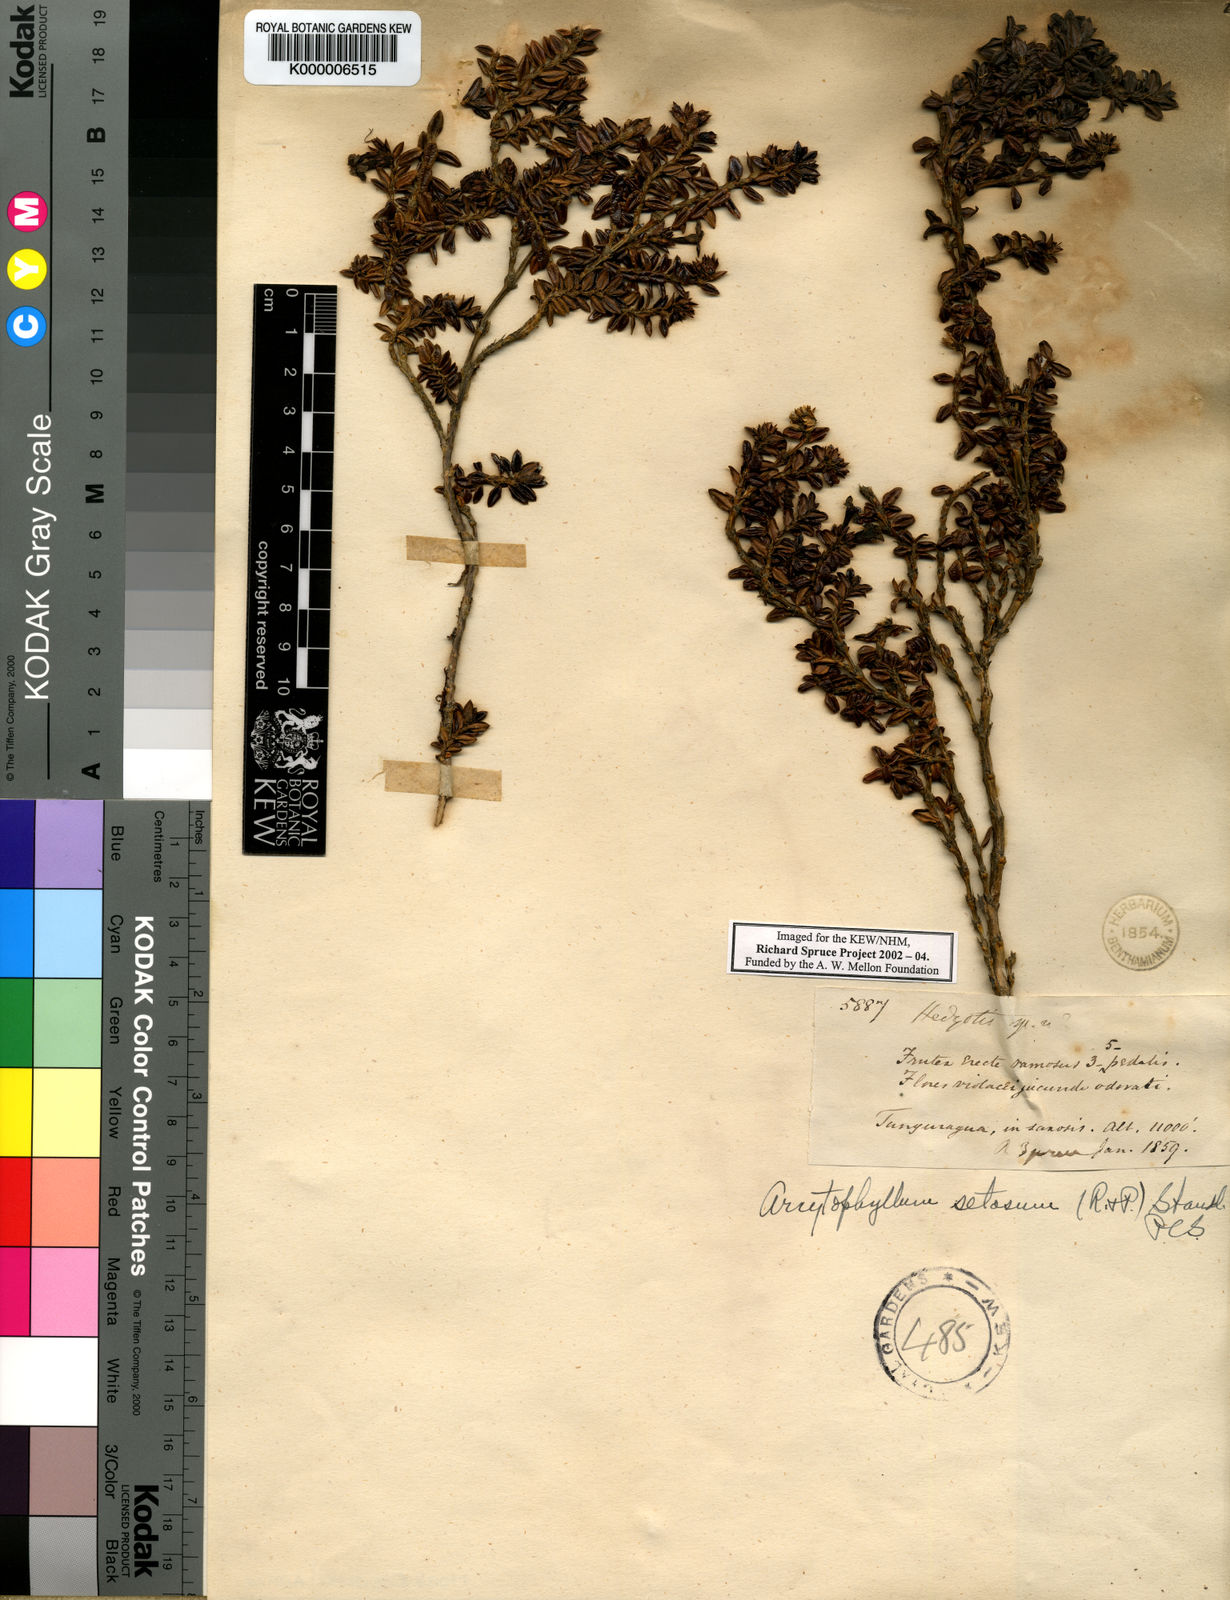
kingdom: Plantae
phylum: Tracheophyta
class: Magnoliopsida
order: Gentianales
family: Rubiaceae
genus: Arcytophyllum
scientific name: Arcytophyllum setosum
